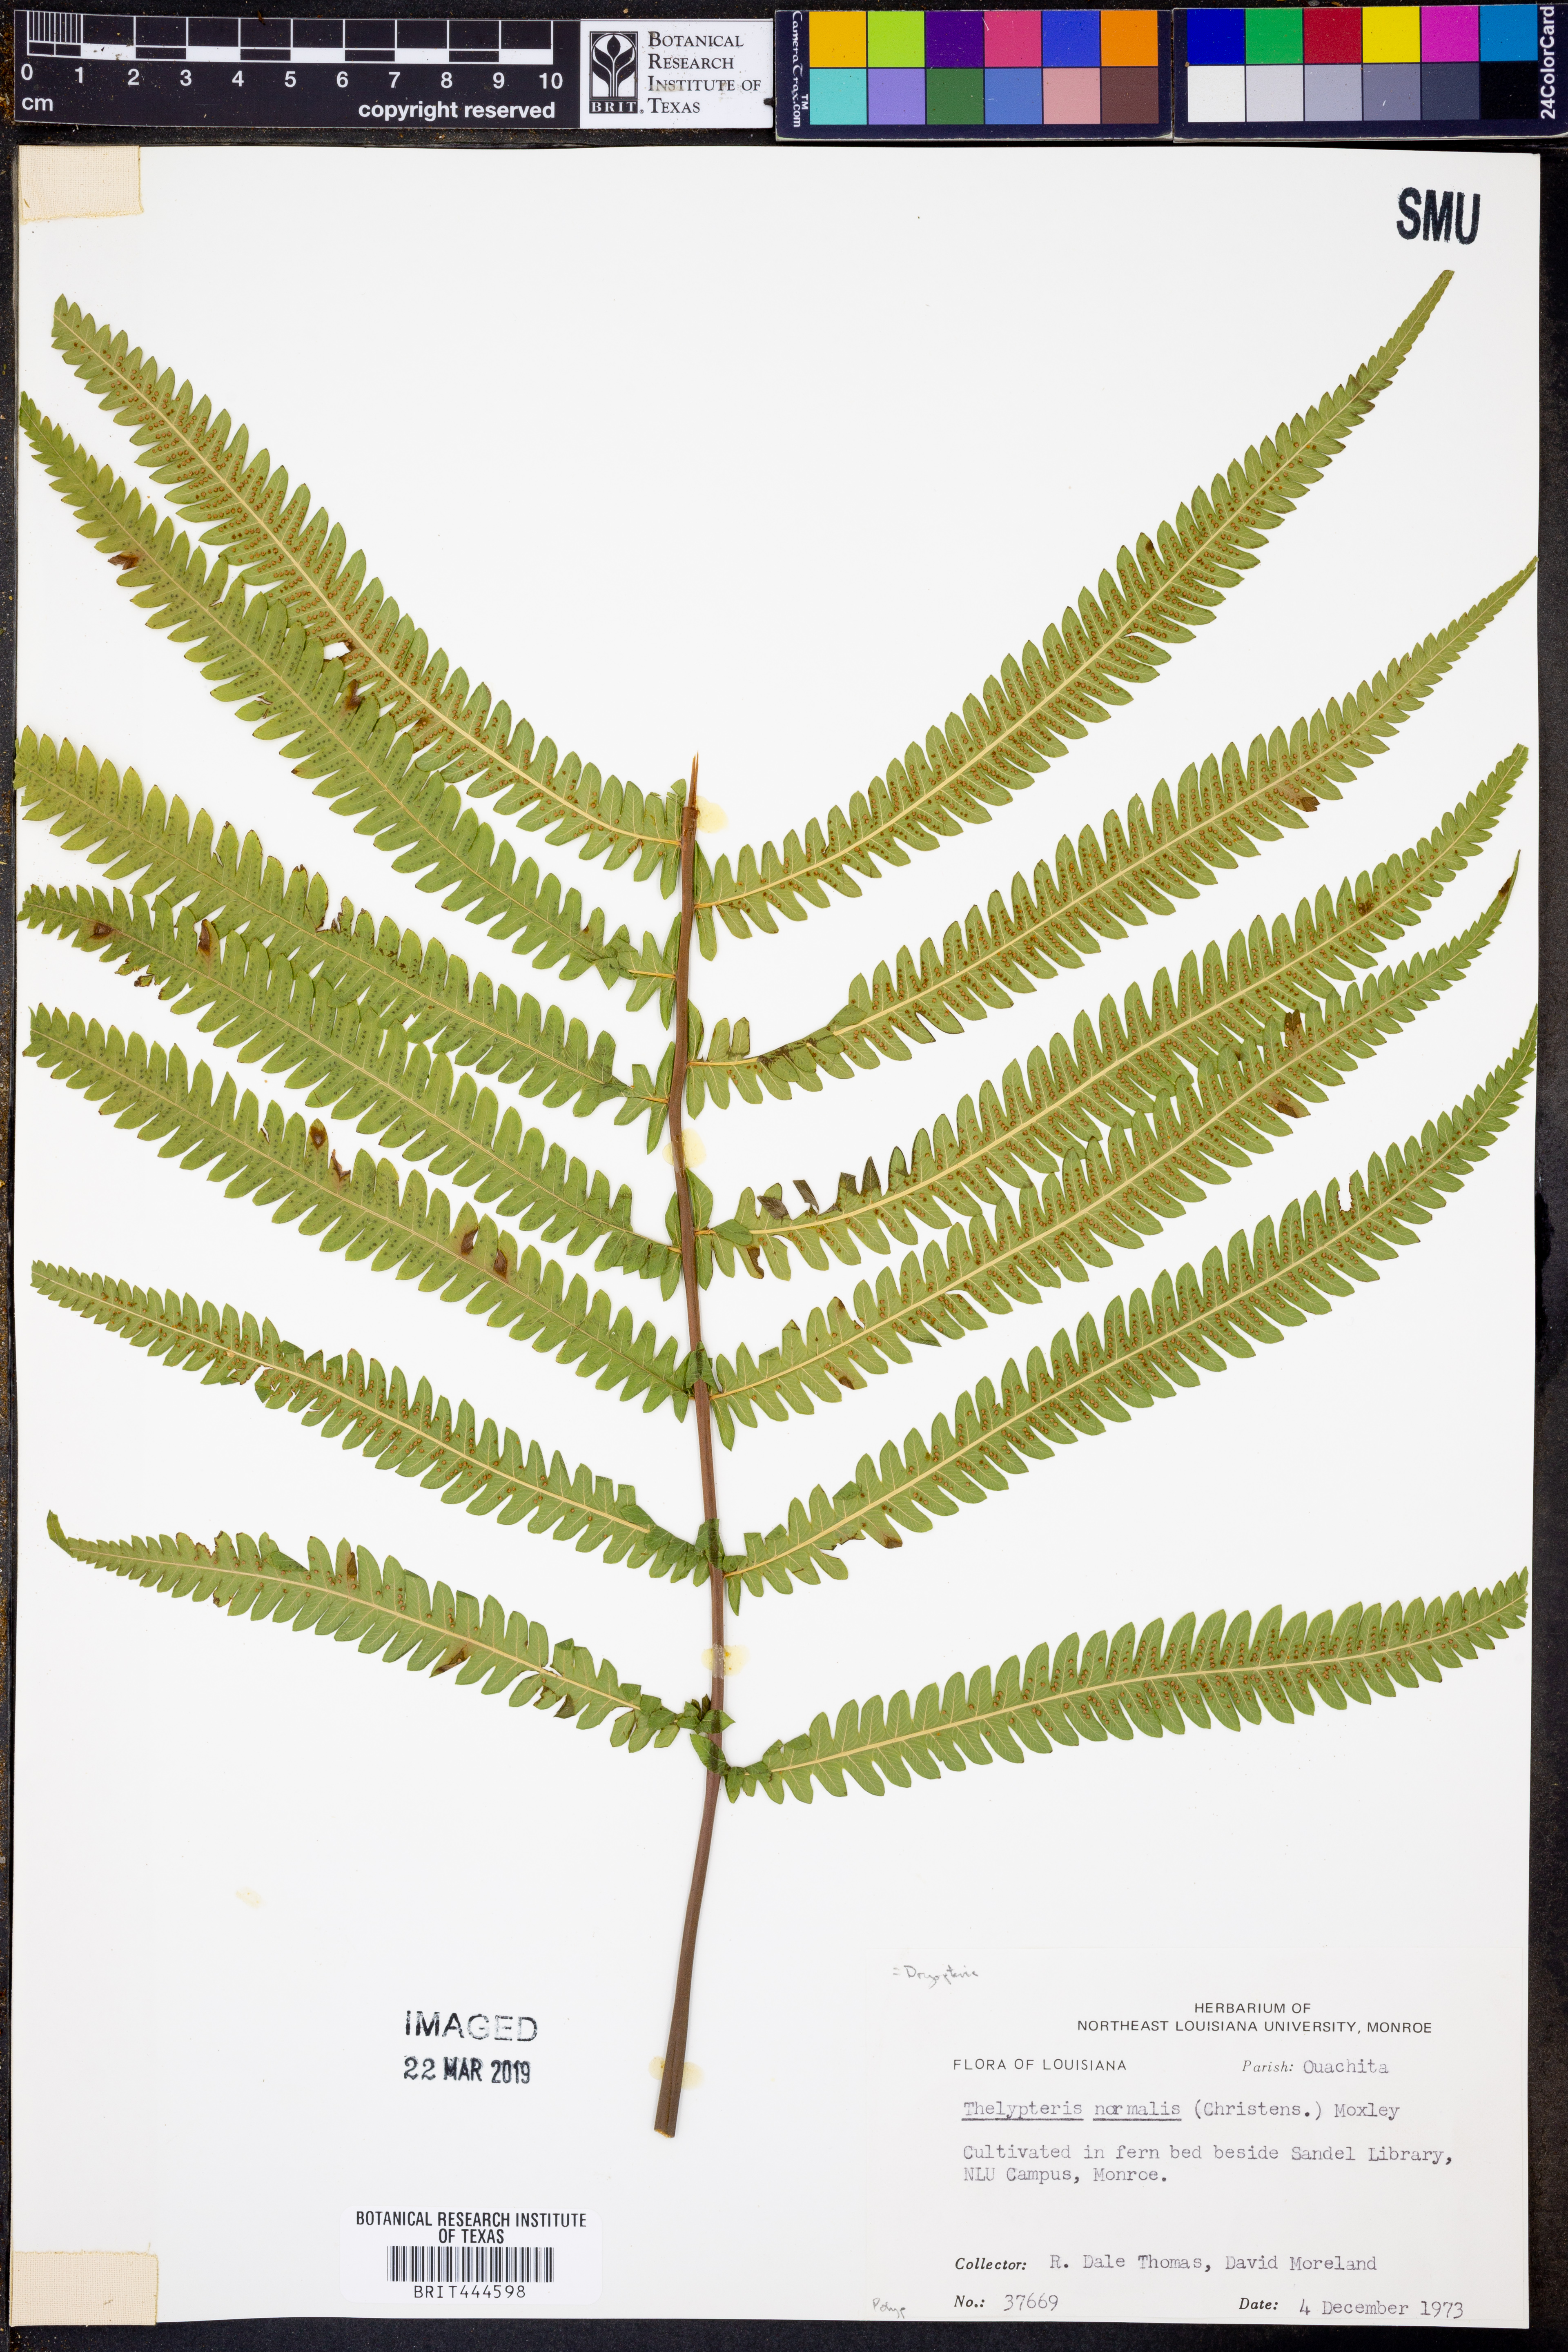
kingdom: Plantae
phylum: Tracheophyta
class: Polypodiopsida
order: Polypodiales
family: Thelypteridaceae
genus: Pelazoneuron
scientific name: Pelazoneuron kunthii
